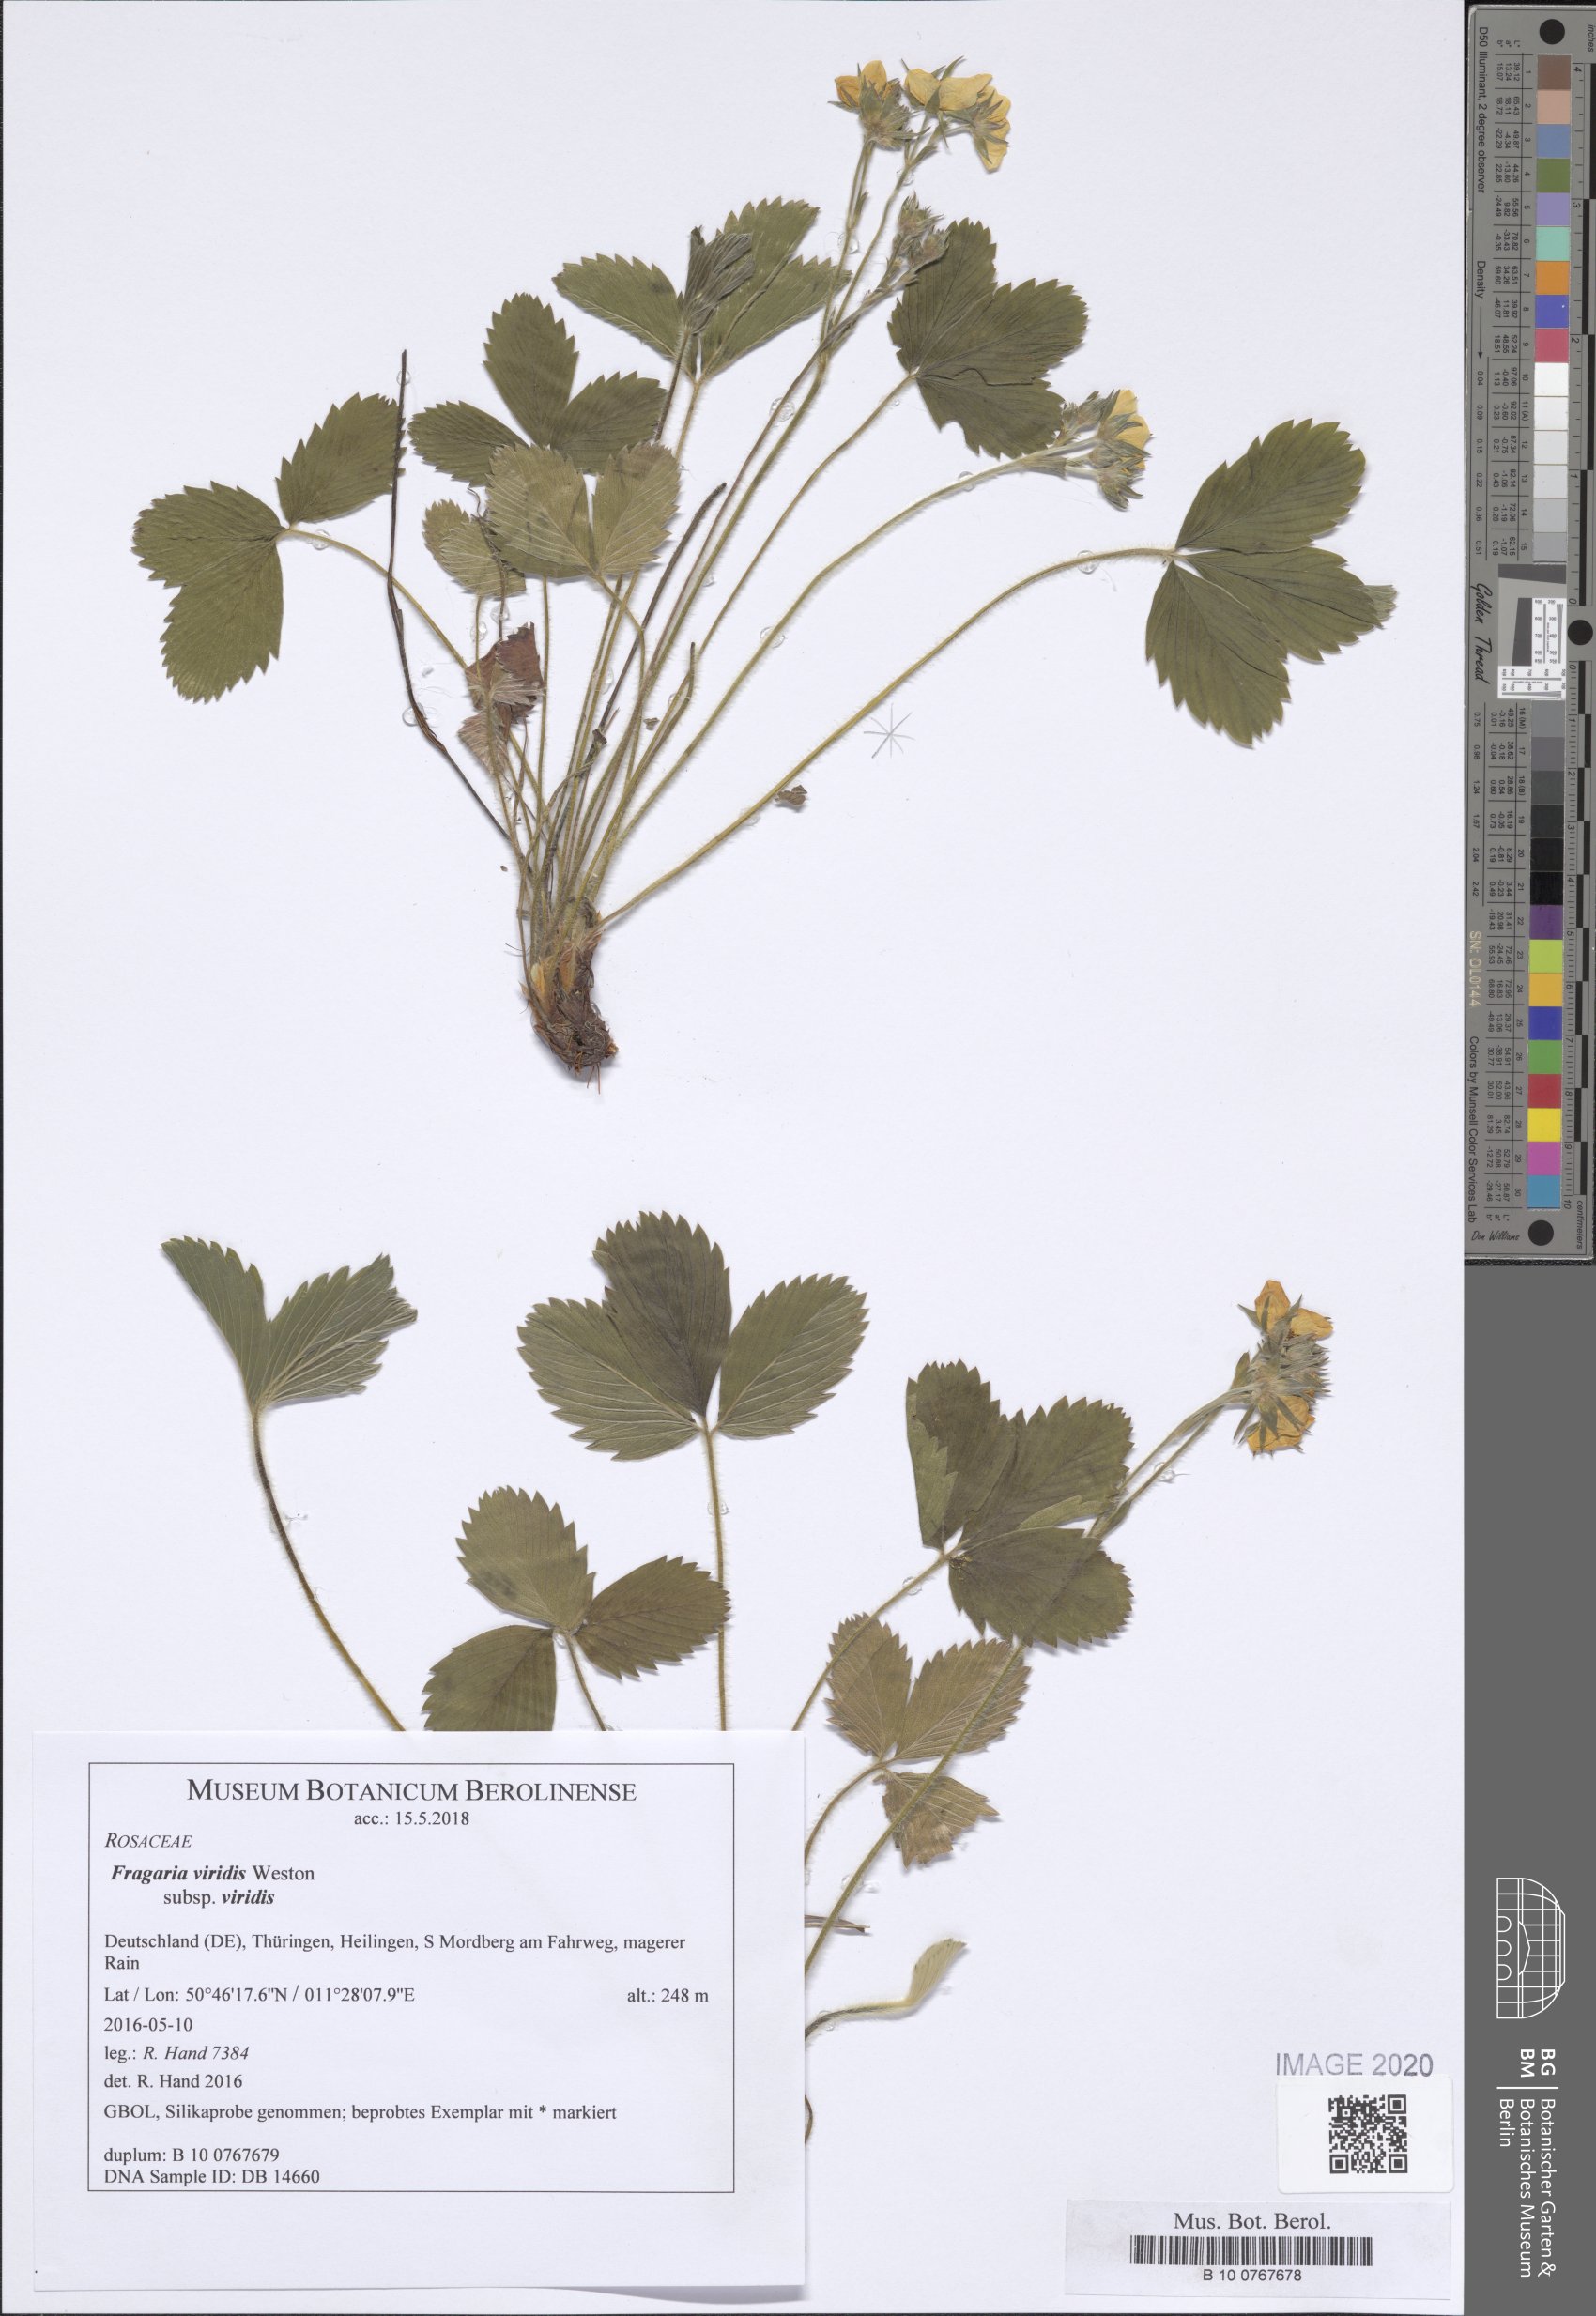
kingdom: Plantae
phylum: Tracheophyta
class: Magnoliopsida
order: Rosales
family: Rosaceae
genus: Fragaria
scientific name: Fragaria viridis
